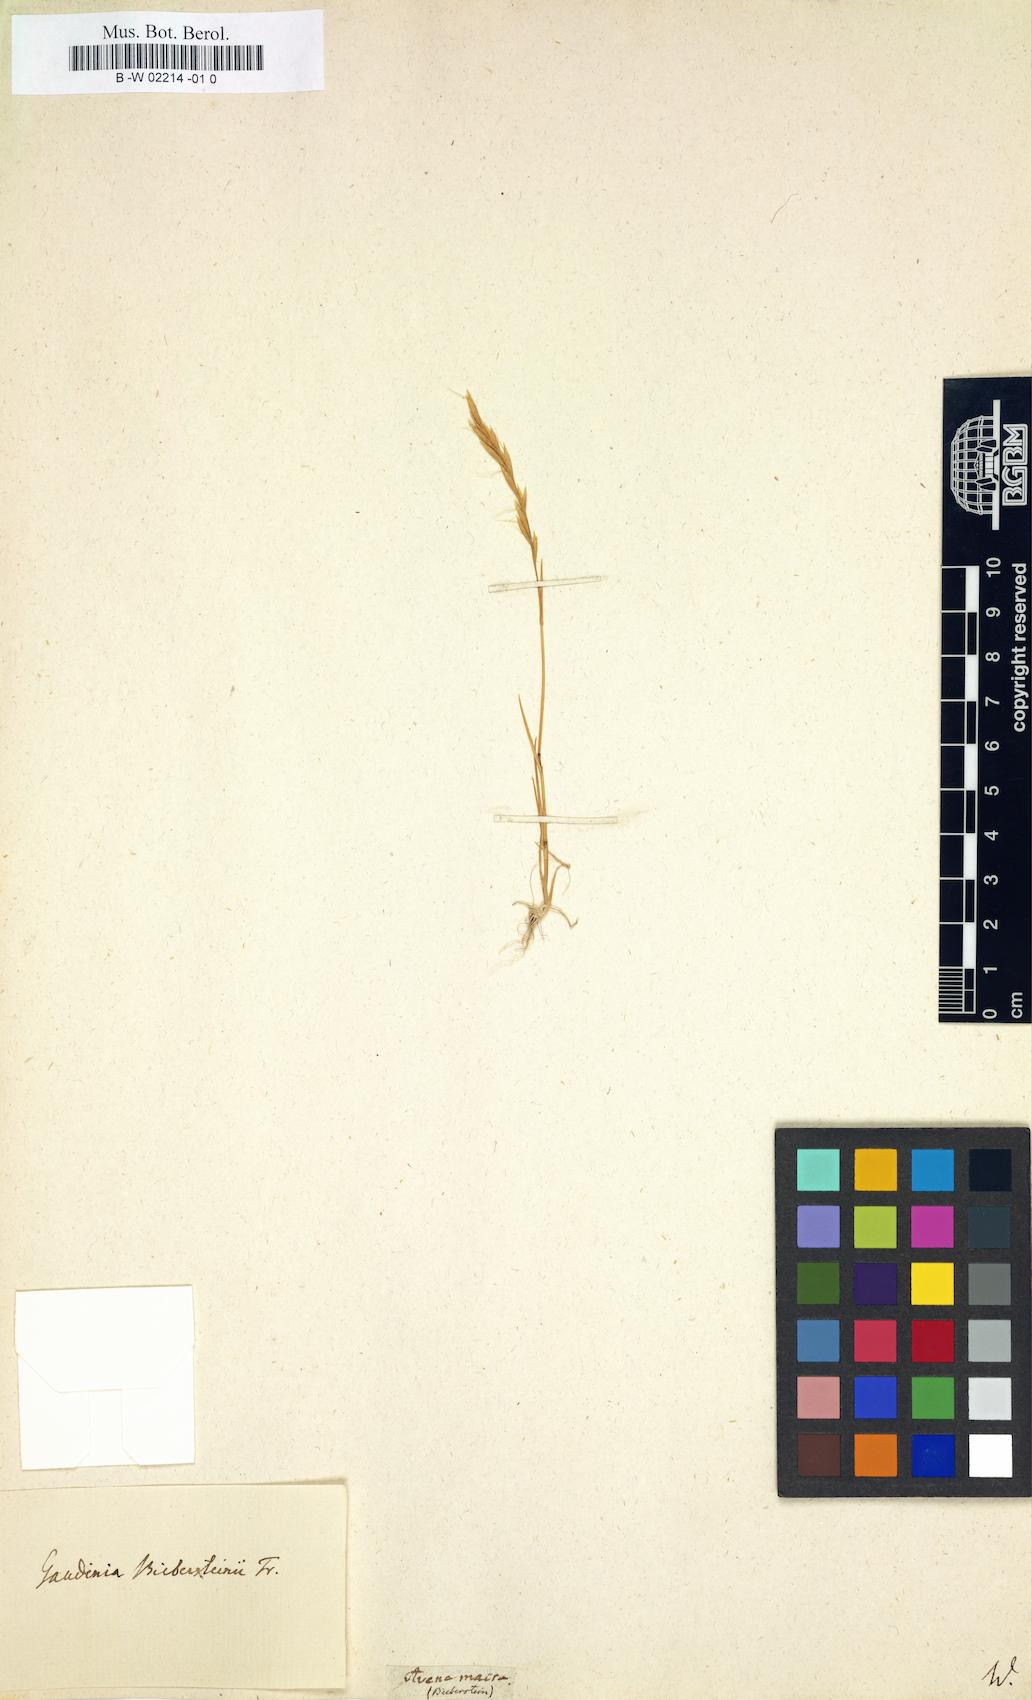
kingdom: Plantae
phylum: Tracheophyta
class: Liliopsida
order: Poales
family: Poaceae
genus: Ventenata
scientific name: Ventenata macra
